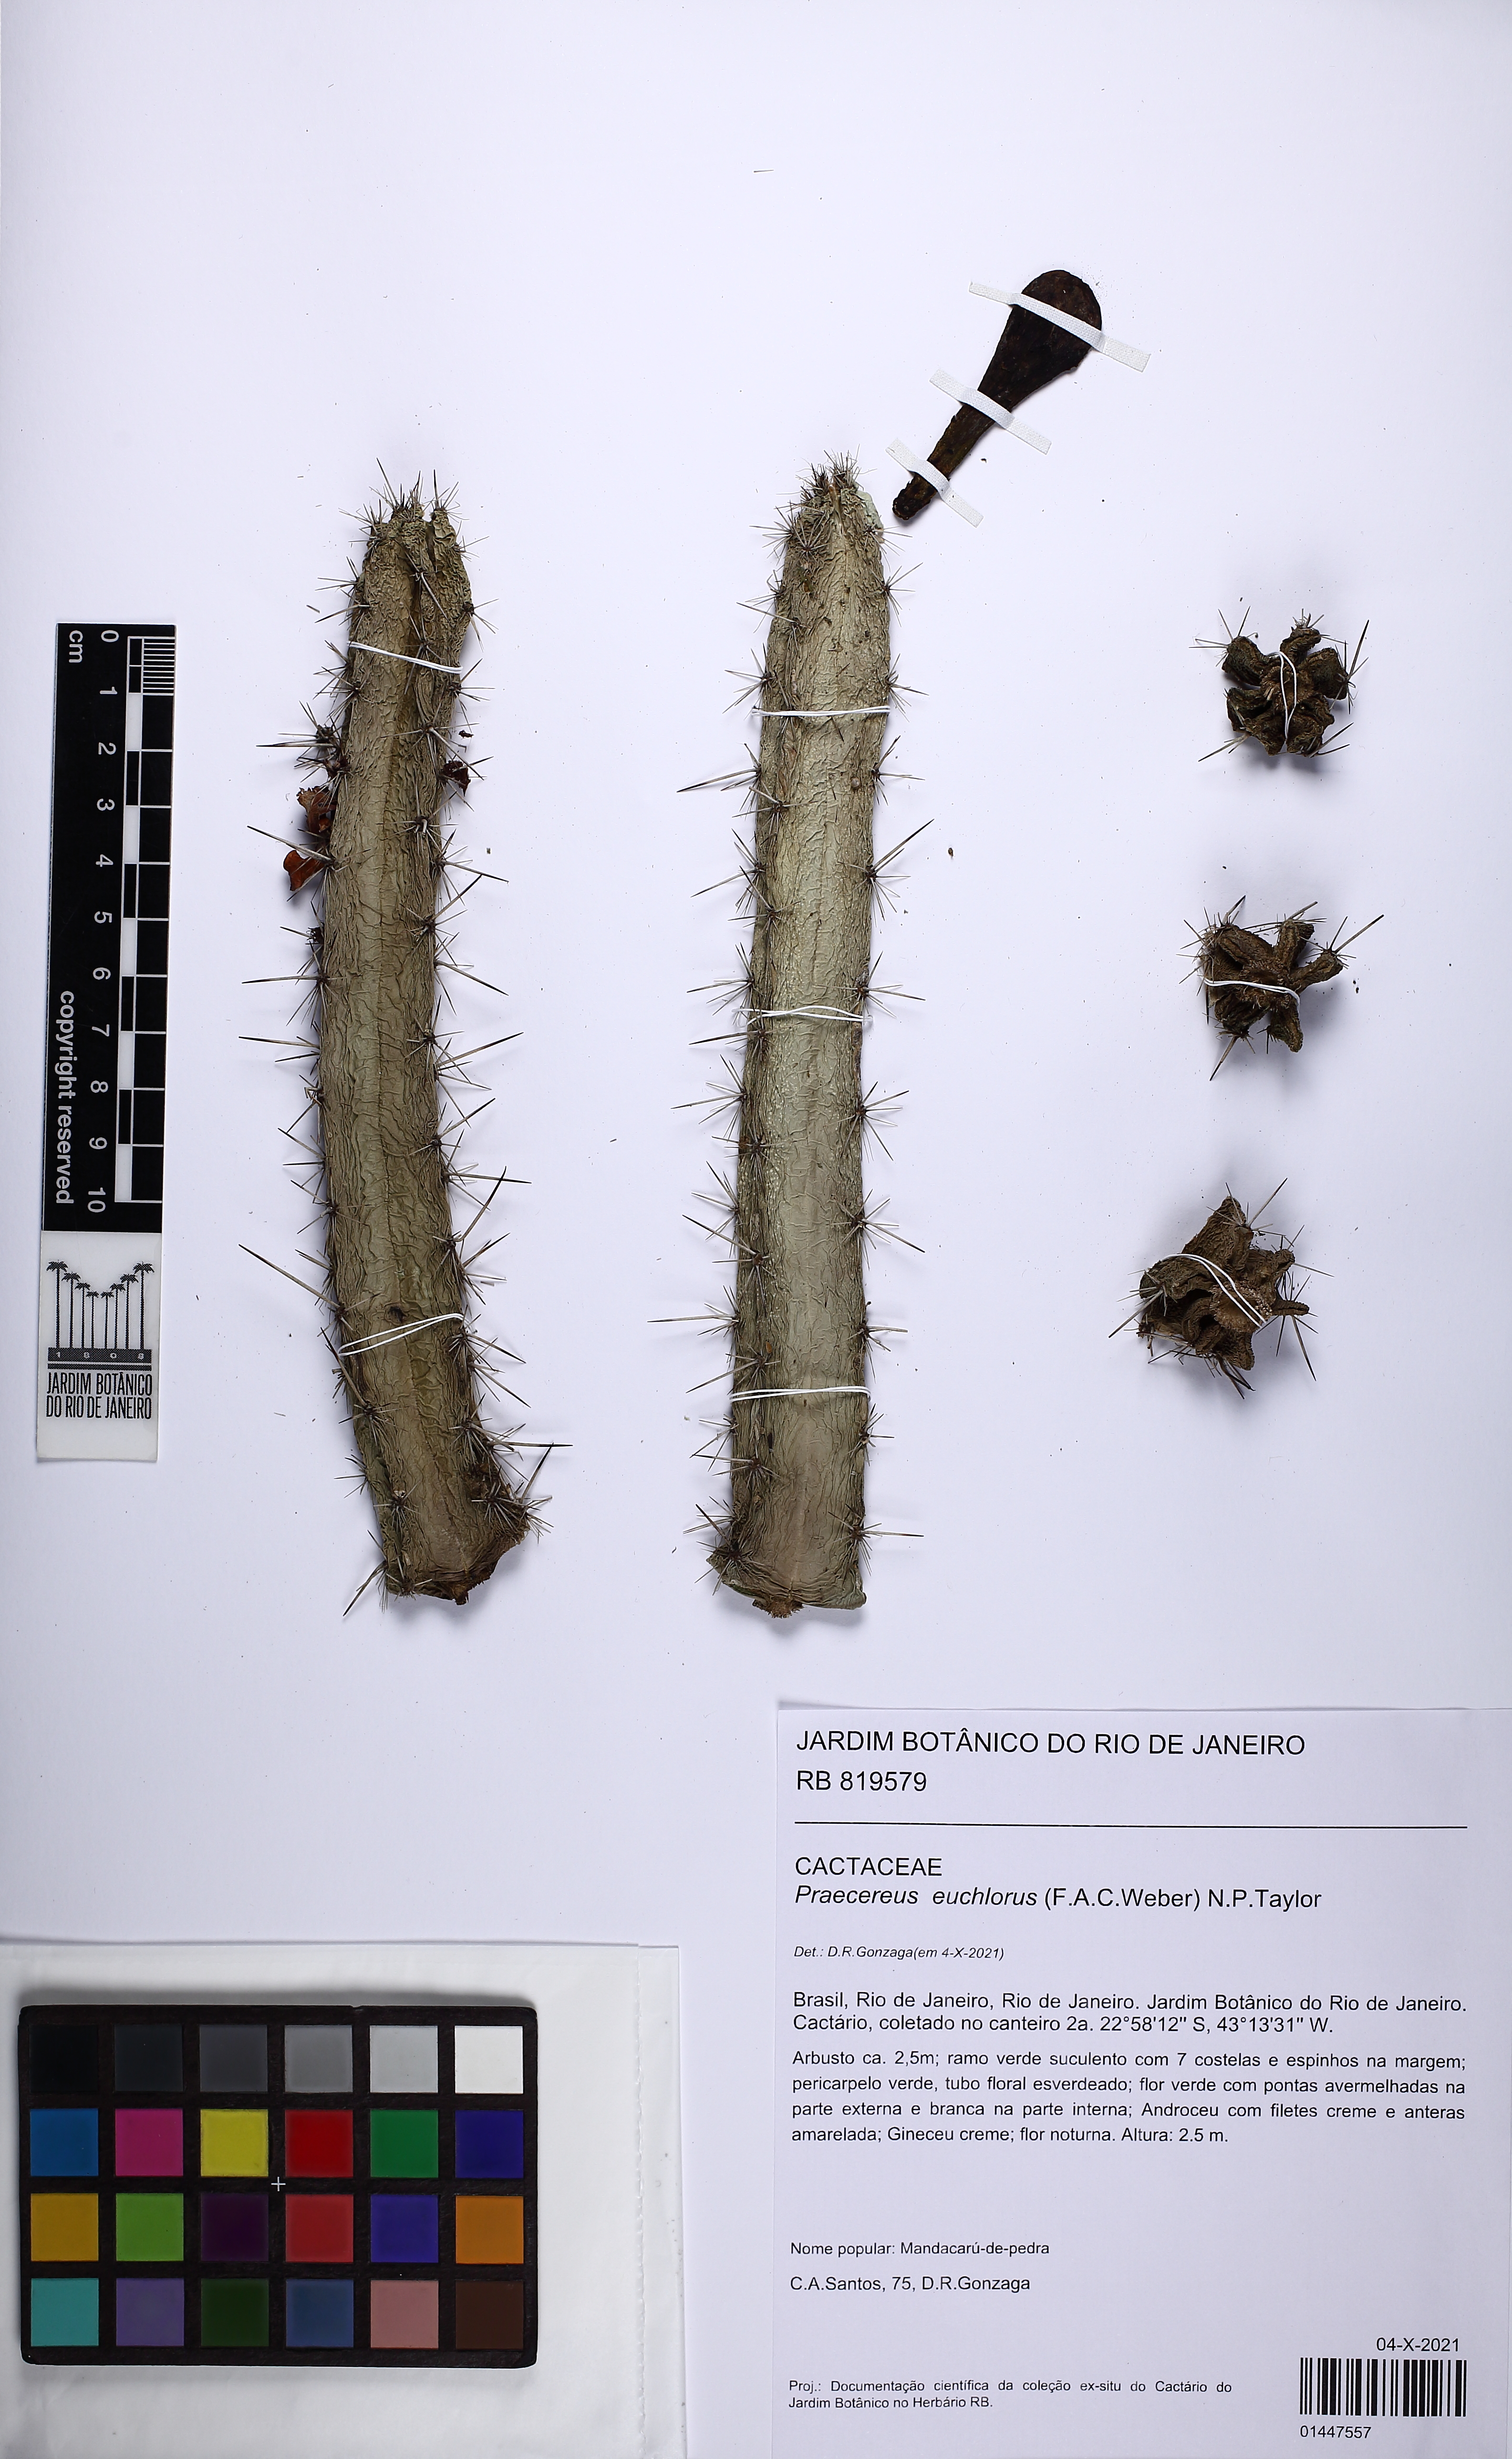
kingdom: Plantae
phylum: Tracheophyta
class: Magnoliopsida
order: Caryophyllales
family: Cactaceae
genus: Praecereus
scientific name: Praecereus euchlorus
